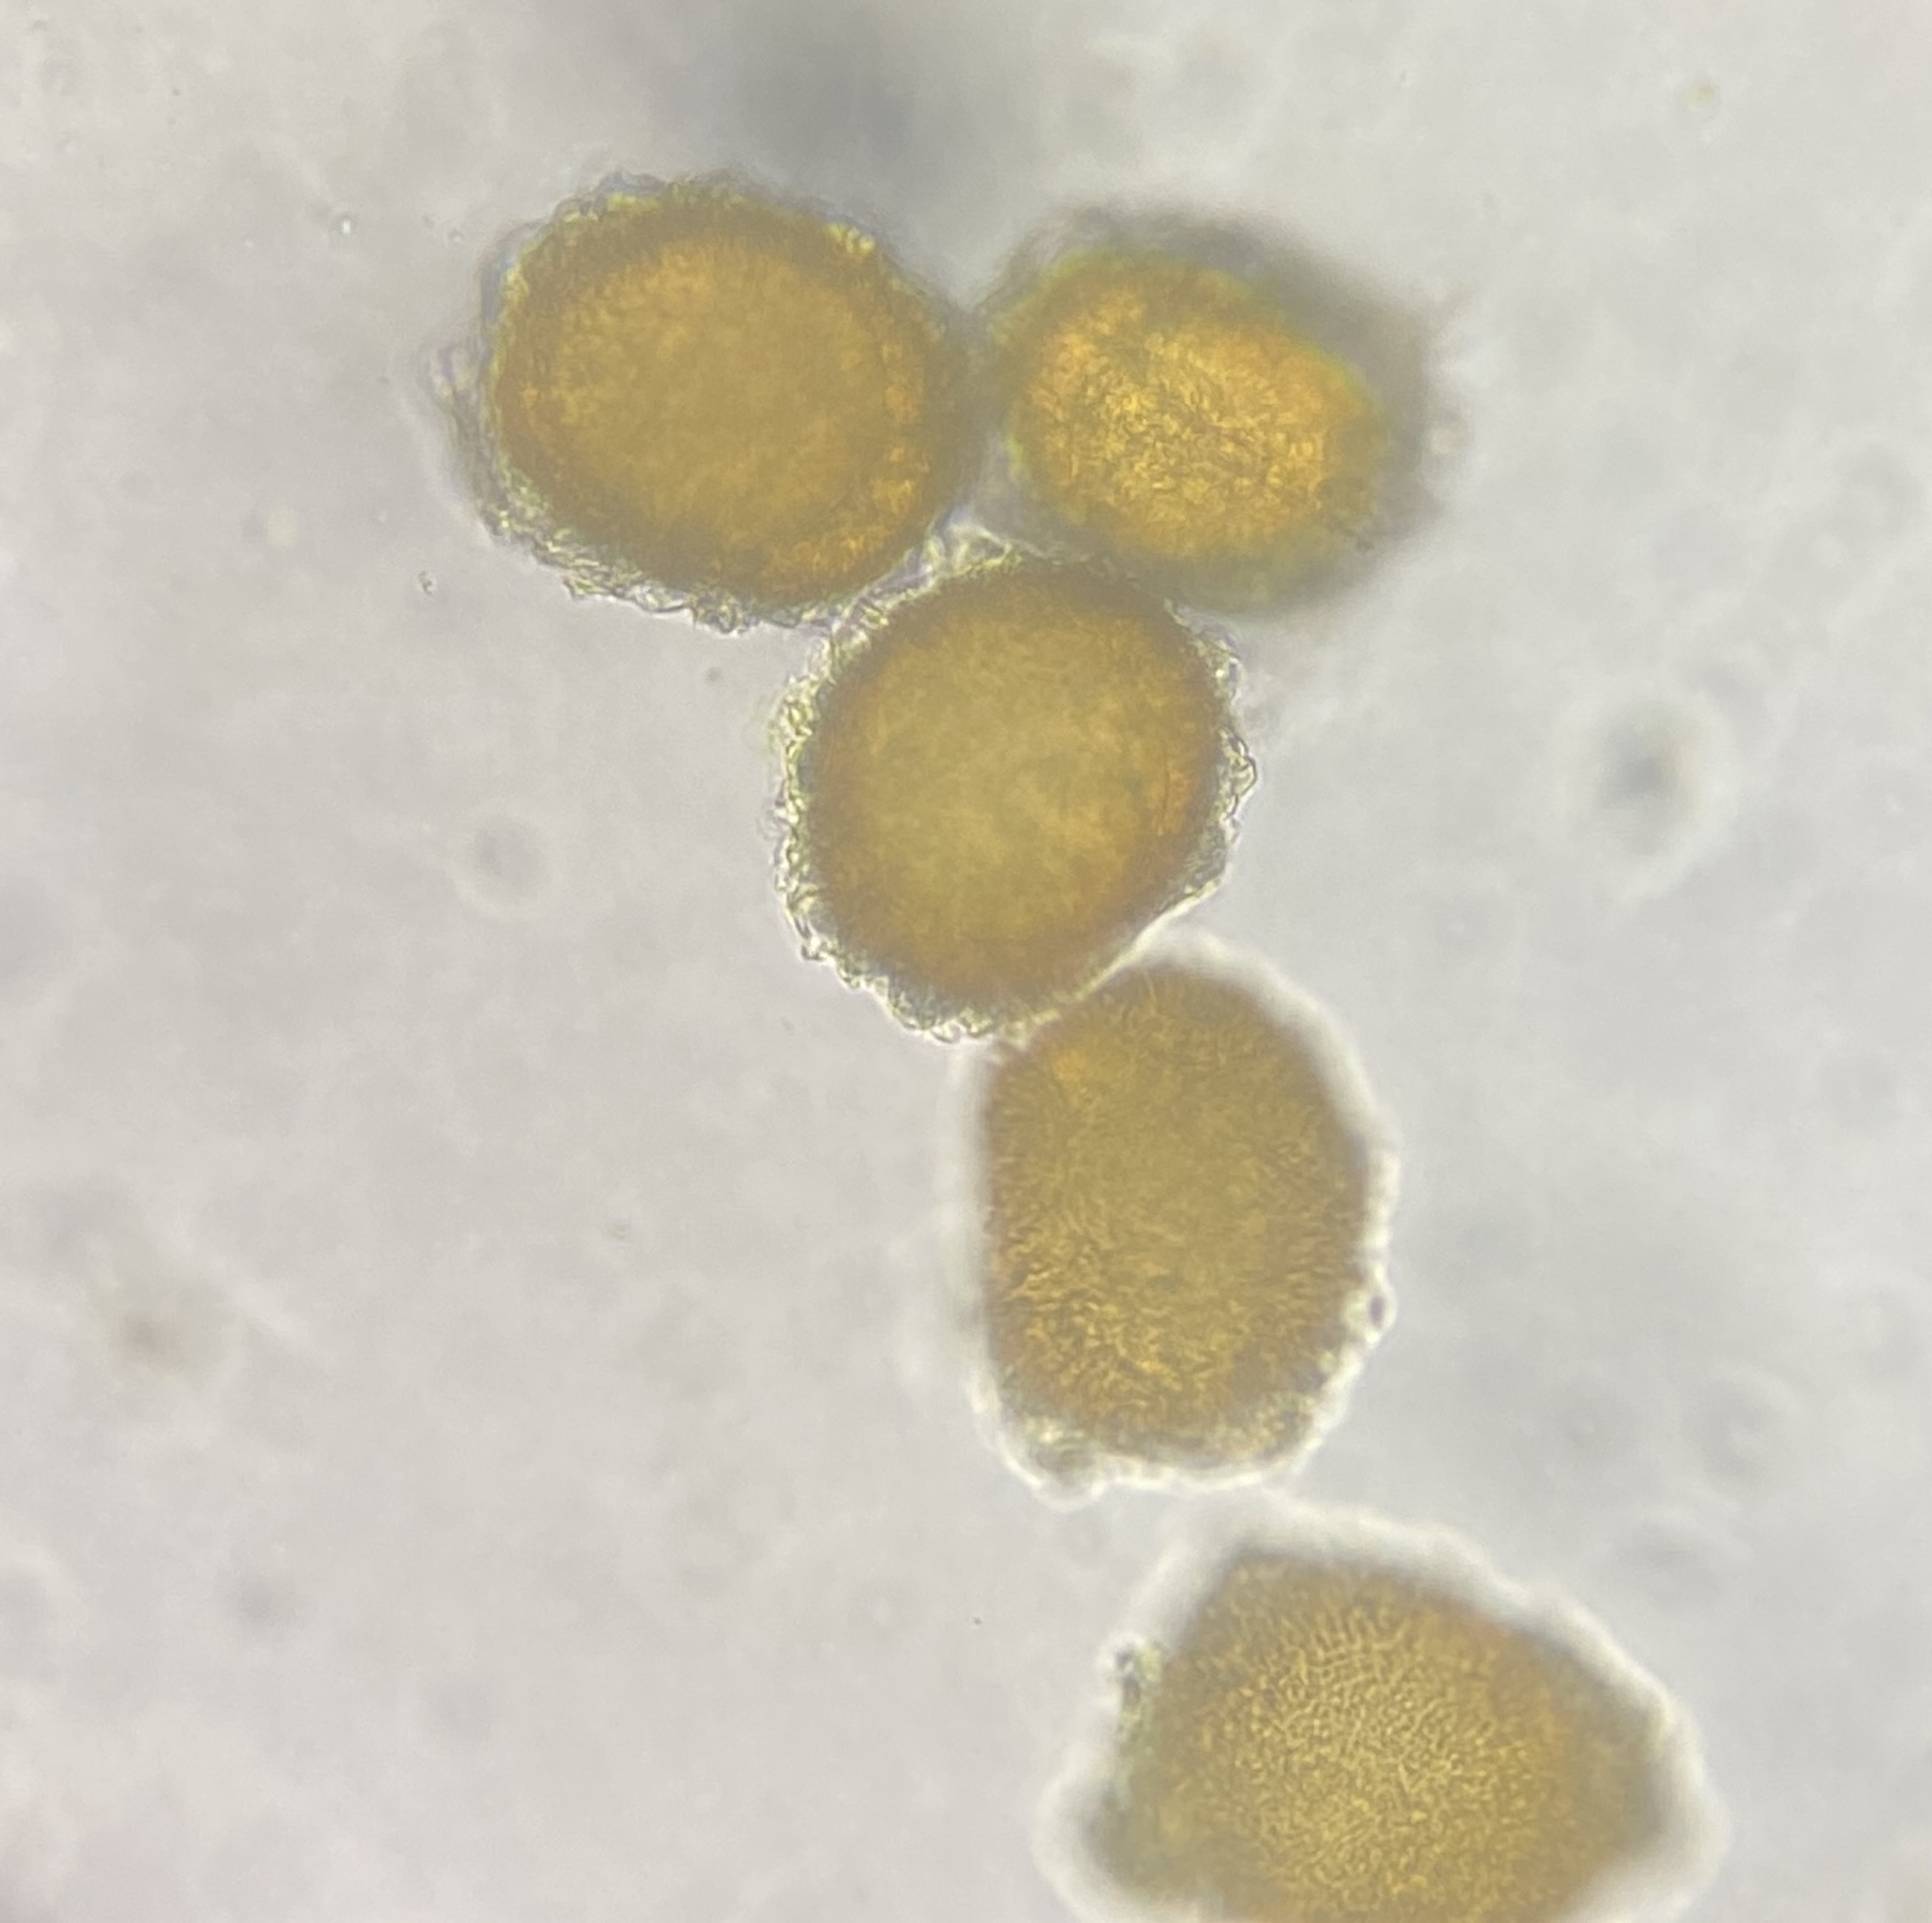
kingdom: Plantae
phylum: Bryophyta
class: Bryopsida
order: Pottiales
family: Ephemeraceae
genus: Ephemerum
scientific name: Ephemerum serratum
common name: Glat døgnmos
